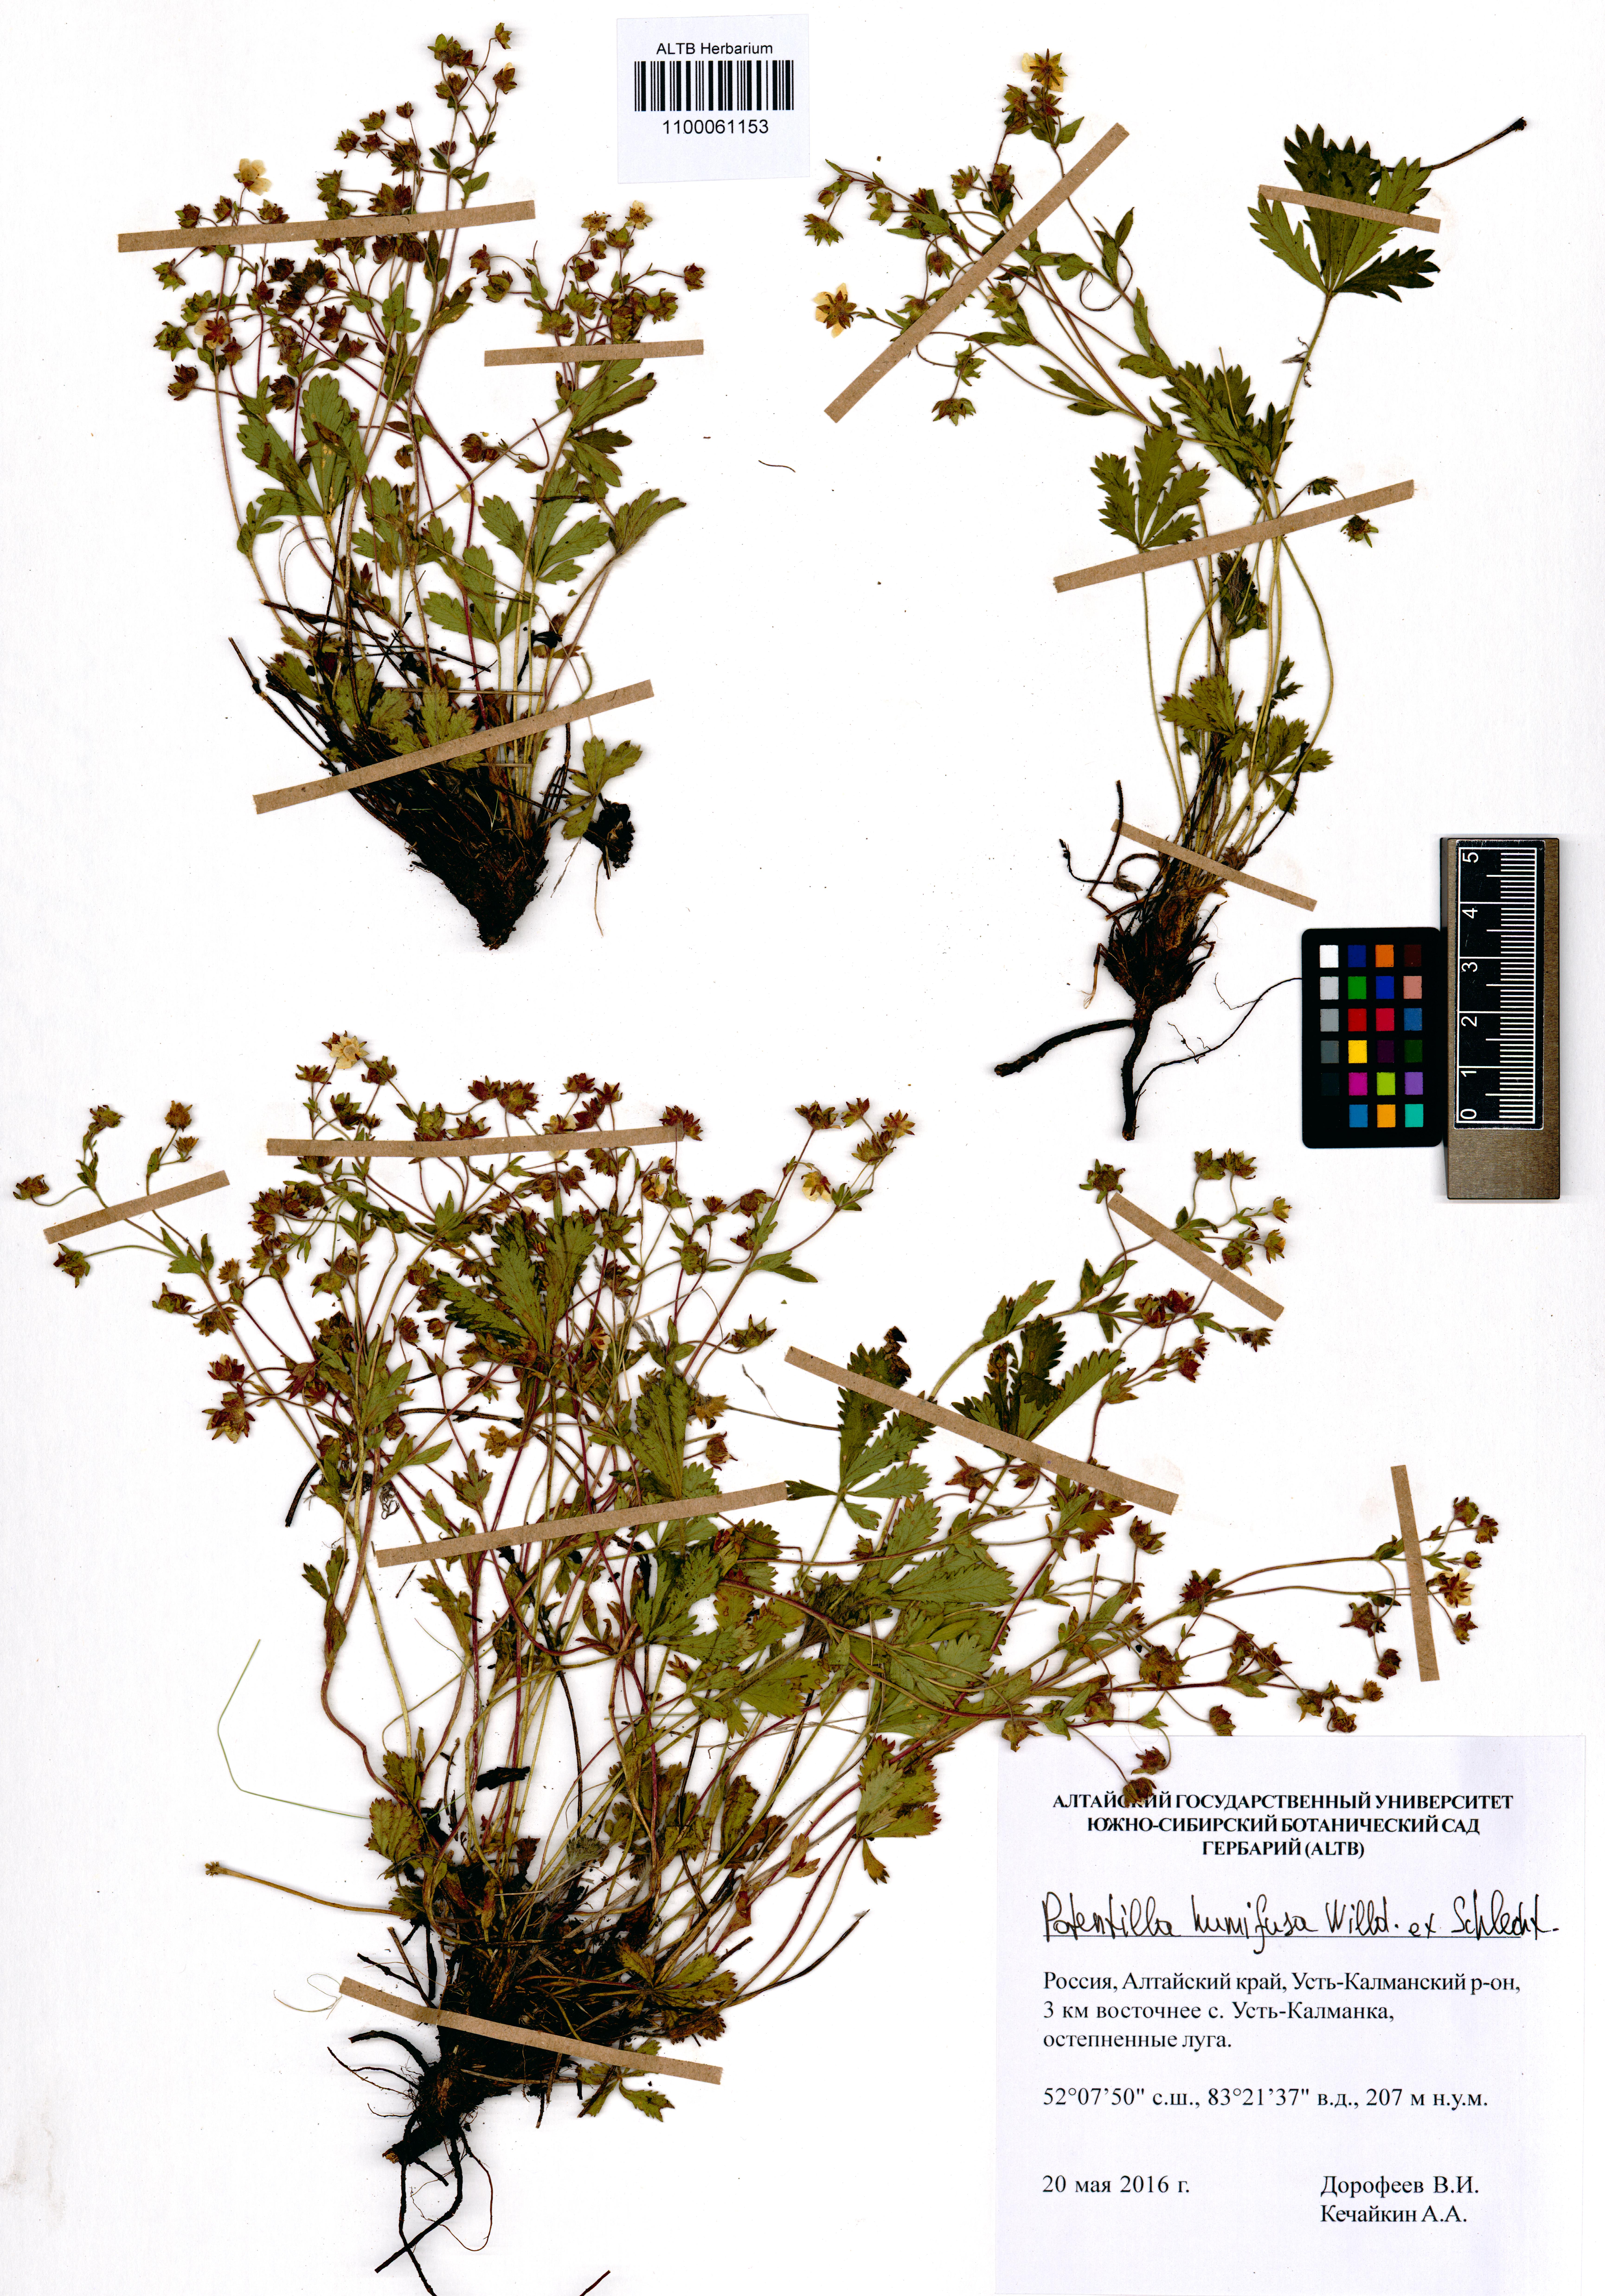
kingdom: Plantae
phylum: Tracheophyta
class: Magnoliopsida
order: Rosales
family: Rosaceae
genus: Potentilla
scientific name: Potentilla humifusa
